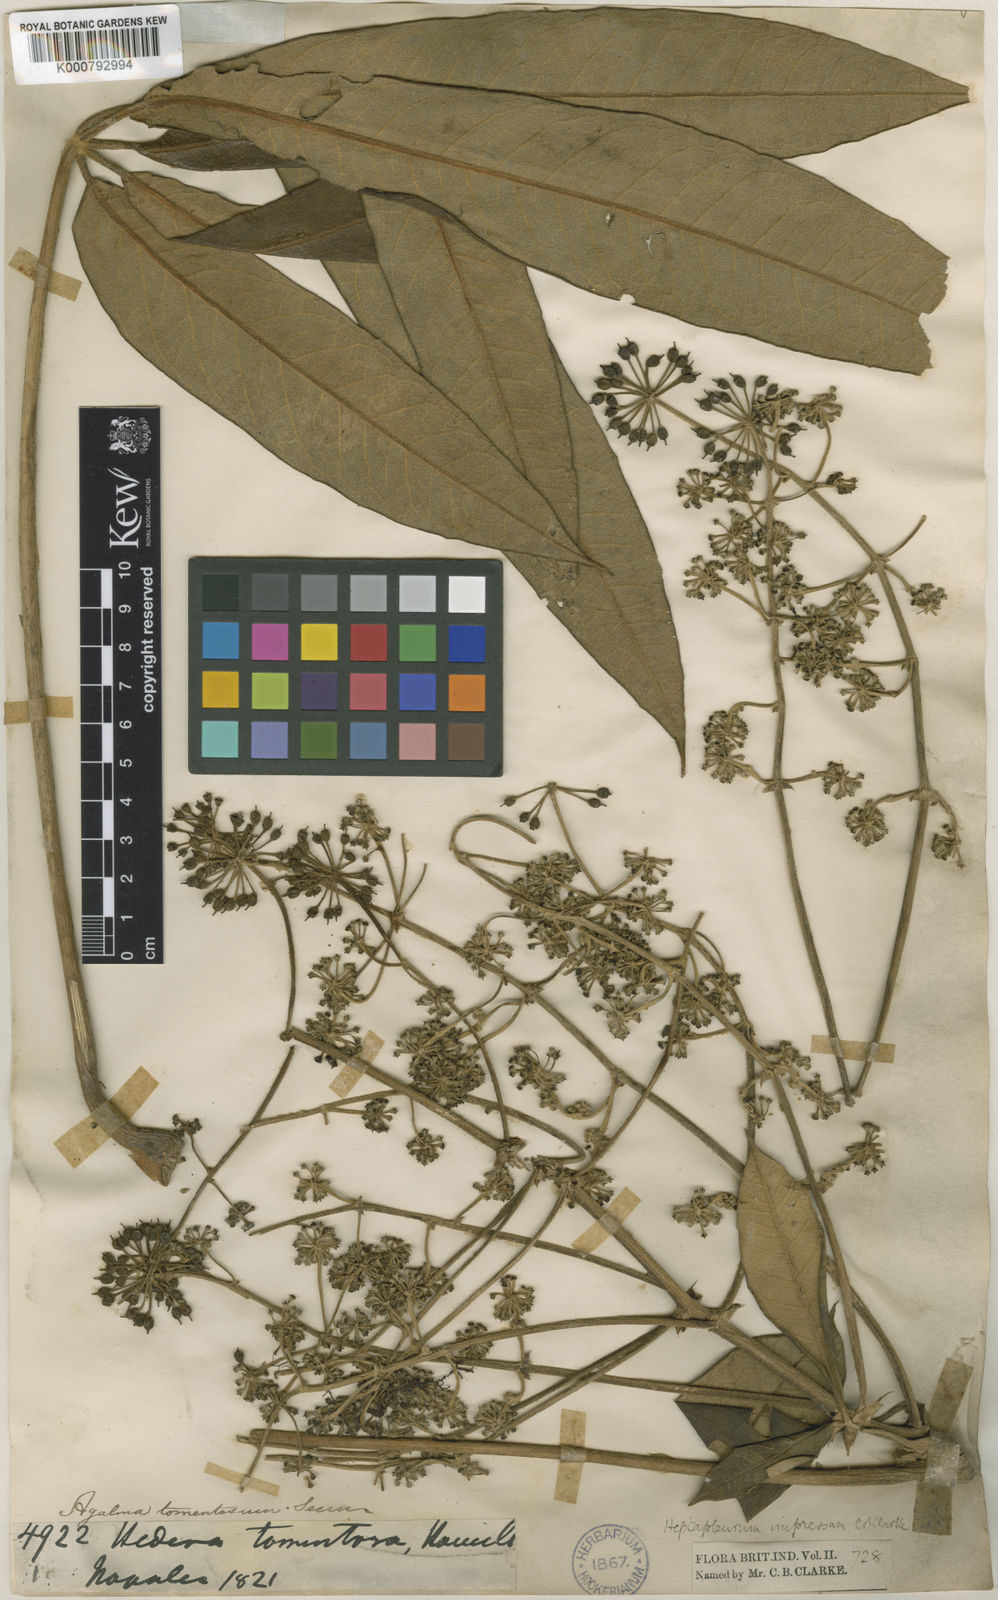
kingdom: Plantae
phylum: Tracheophyta
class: Magnoliopsida
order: Apiales
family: Araliaceae
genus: Heptapleurum
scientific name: Heptapleurum rhododendrifolium
